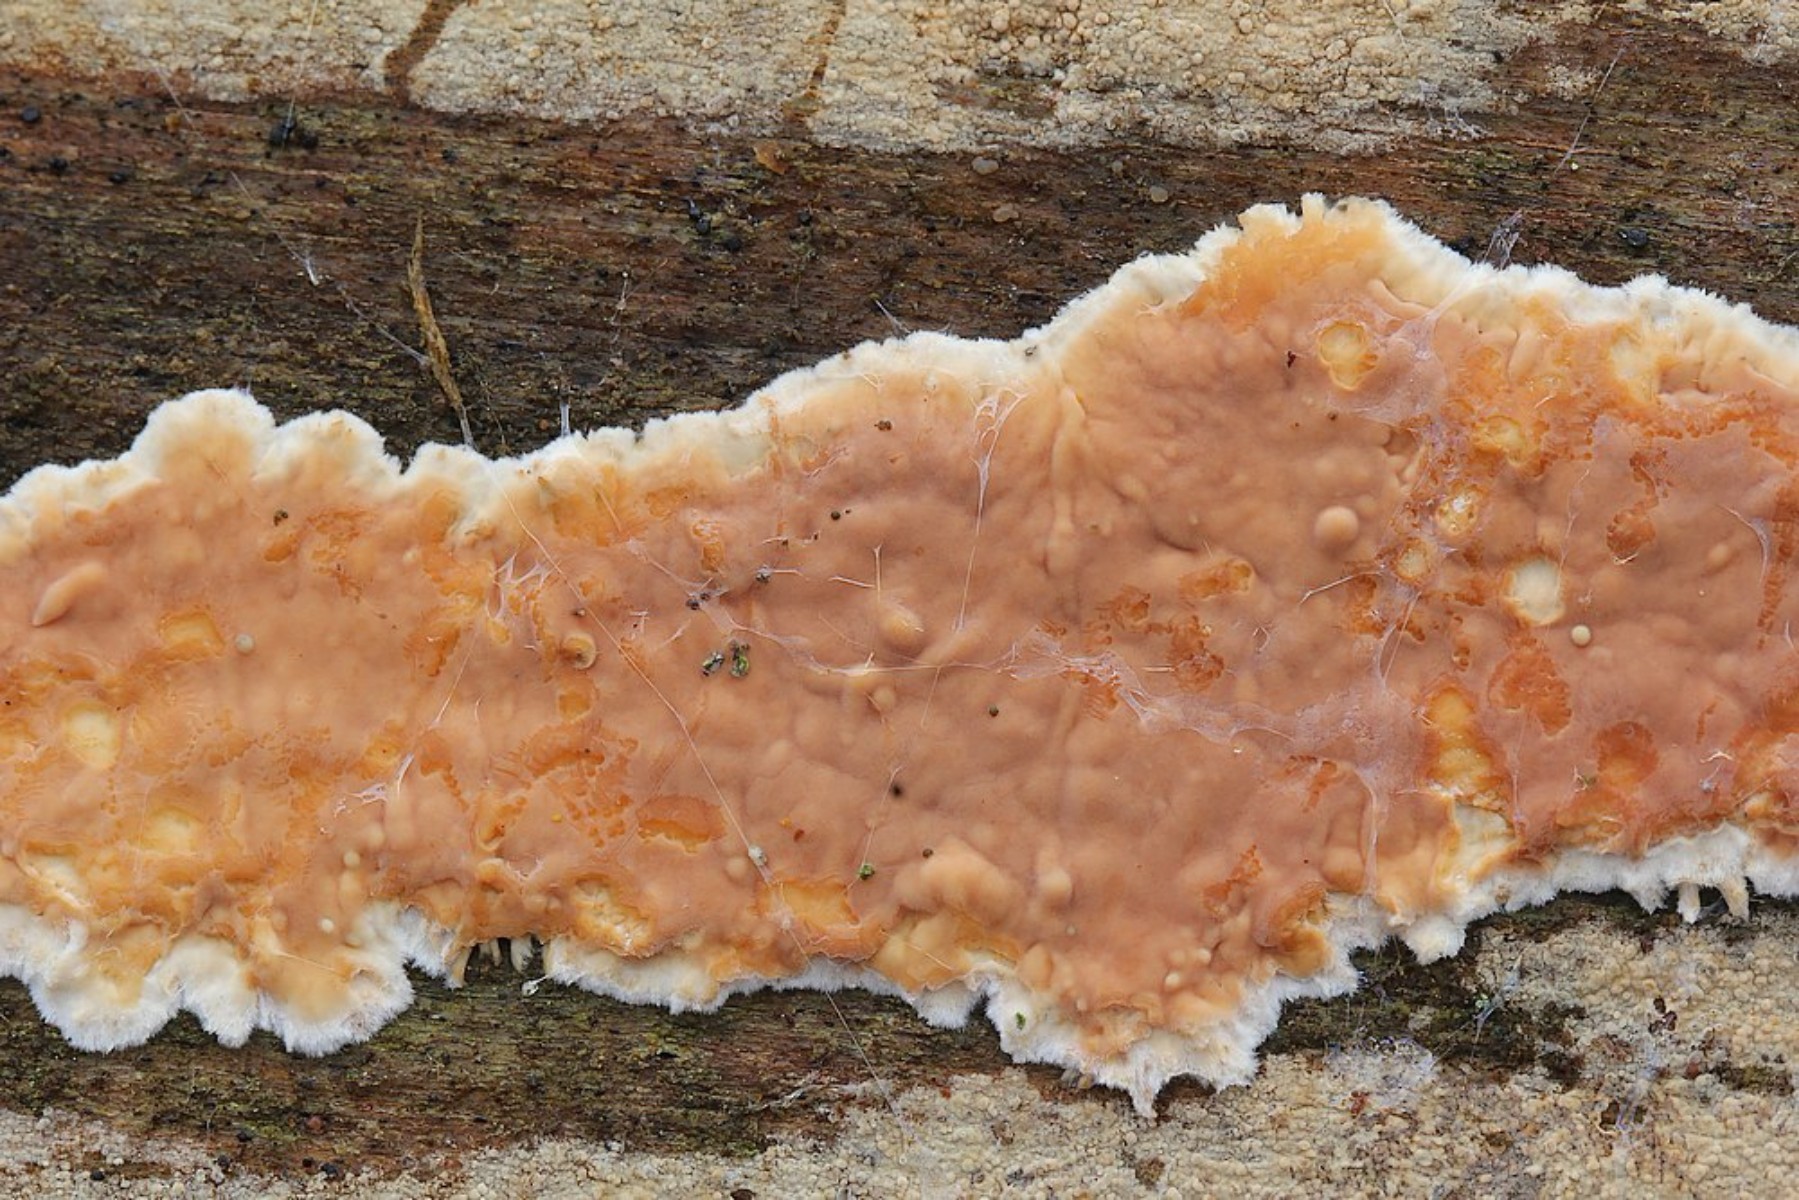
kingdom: Fungi
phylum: Basidiomycota
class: Agaricomycetes
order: Polyporales
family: Dacryobolaceae
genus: Dacryobolus
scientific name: Dacryobolus karstenii
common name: glat vulkanskorpe
